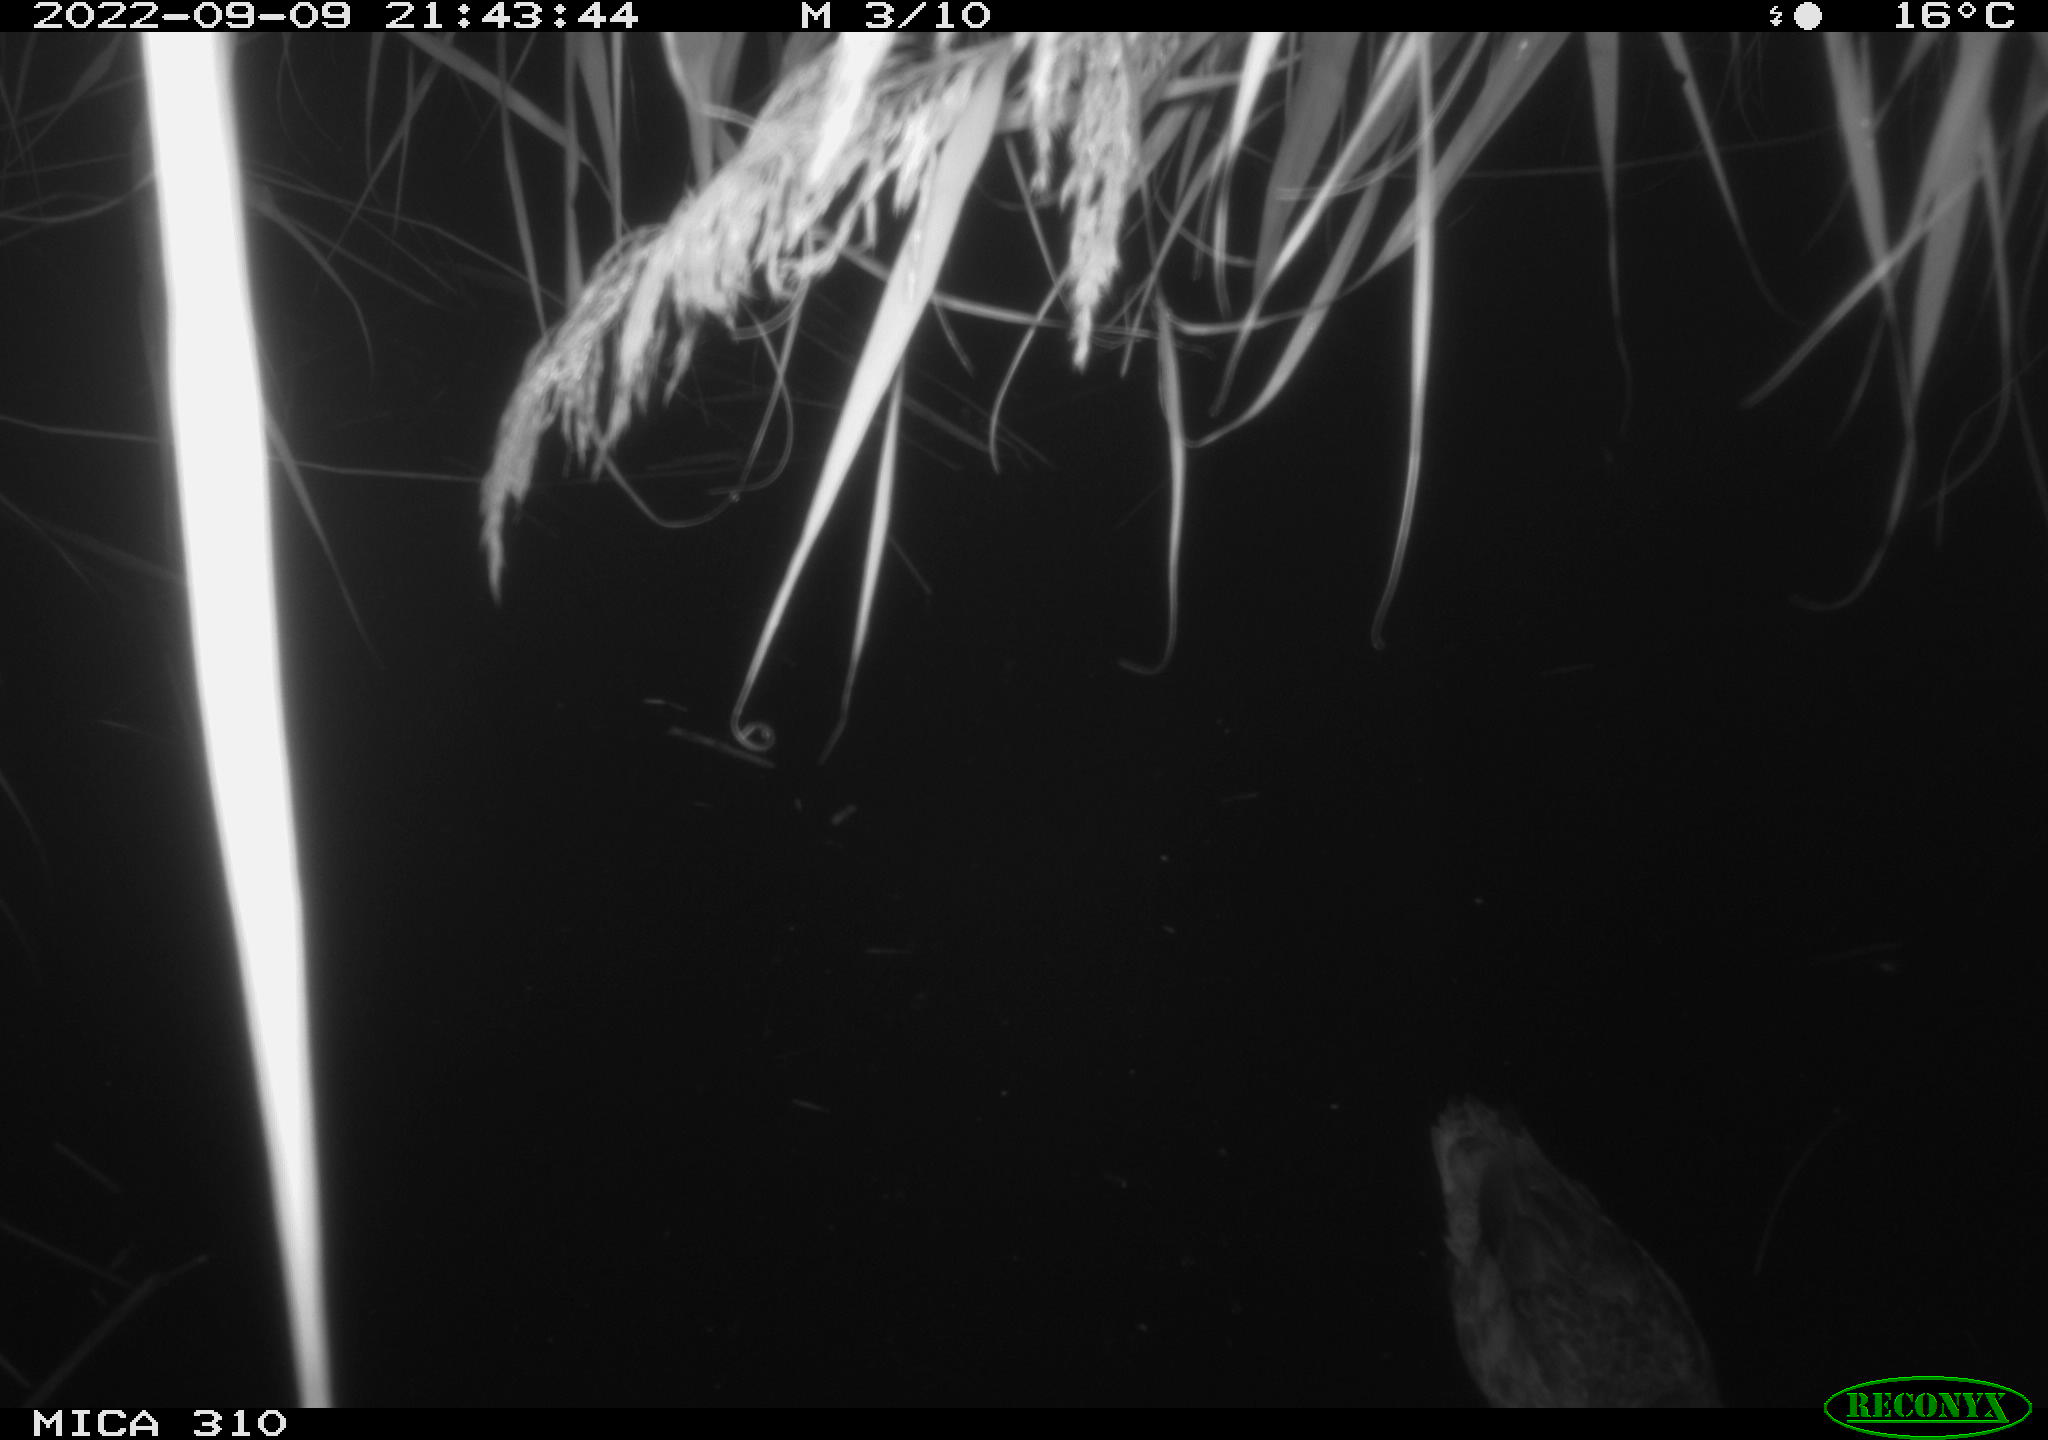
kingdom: Animalia
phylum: Chordata
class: Aves
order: Anseriformes
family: Anatidae
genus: Anas
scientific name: Anas
